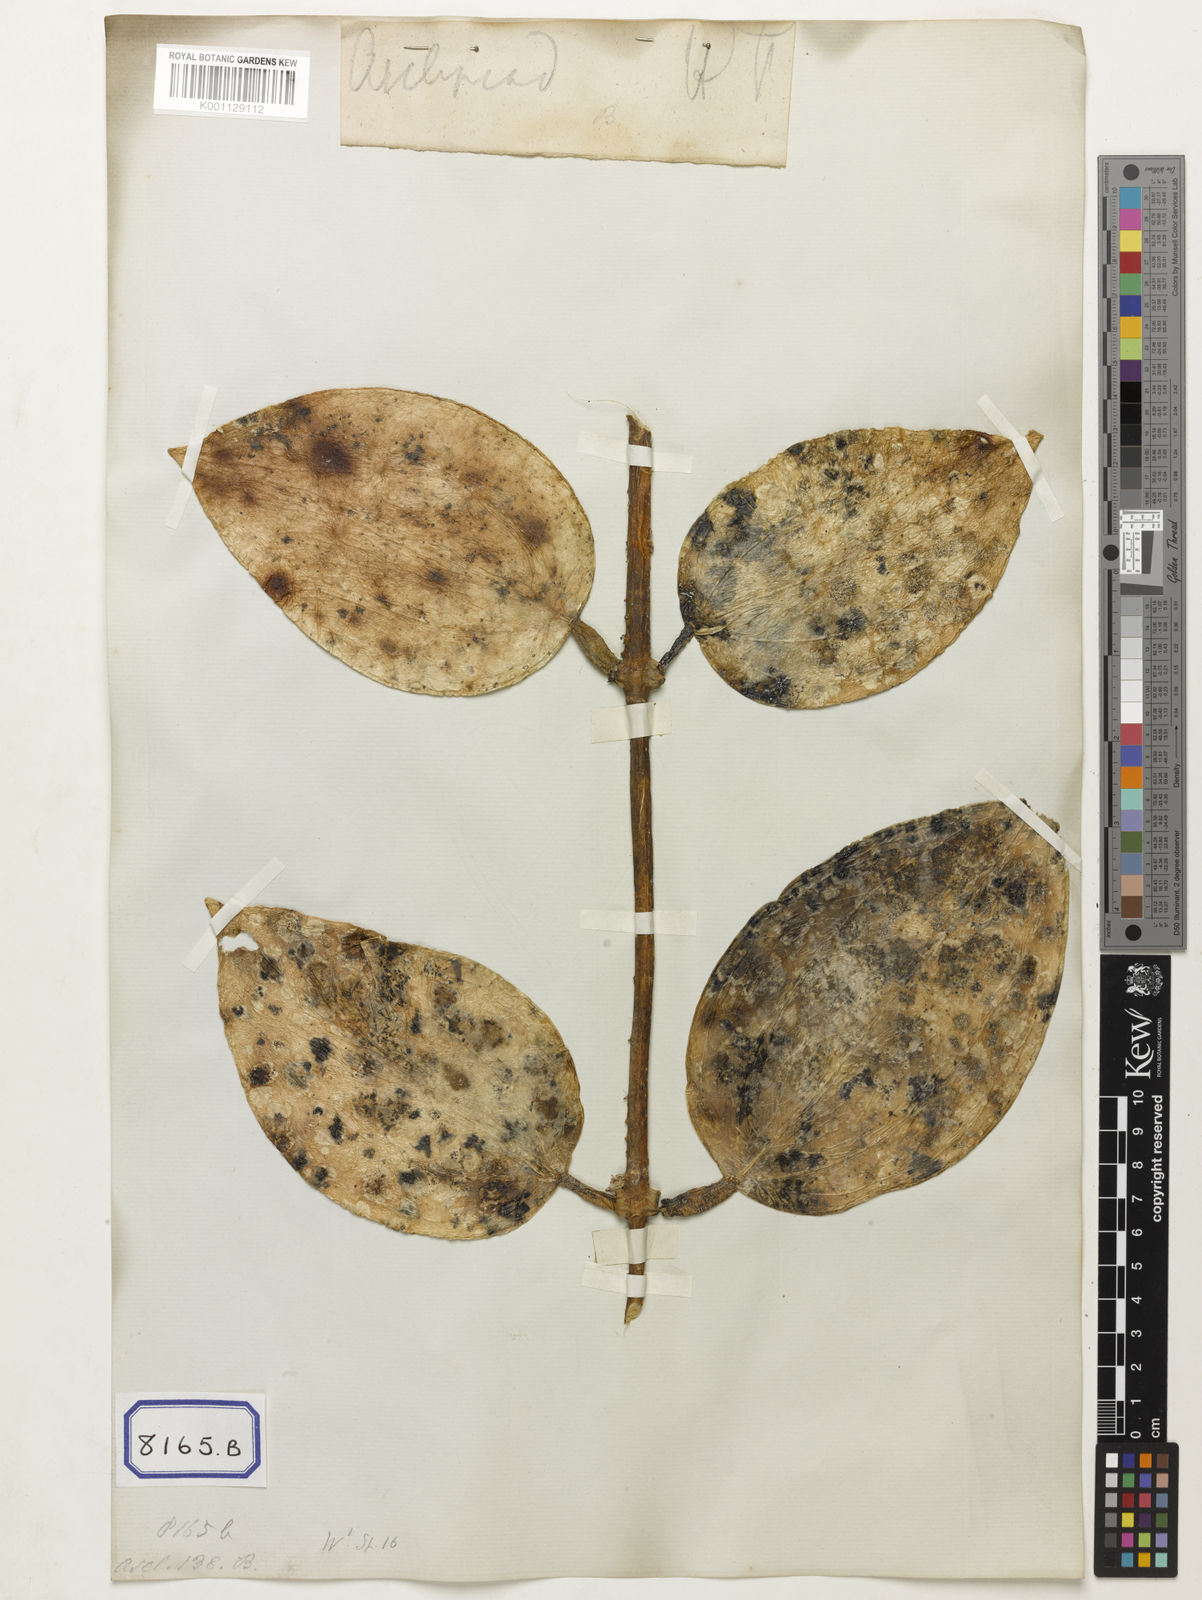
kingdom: Plantae
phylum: Tracheophyta
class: Magnoliopsida
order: Gentianales
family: Apocynaceae
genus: Hoya
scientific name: Hoya latifolia
